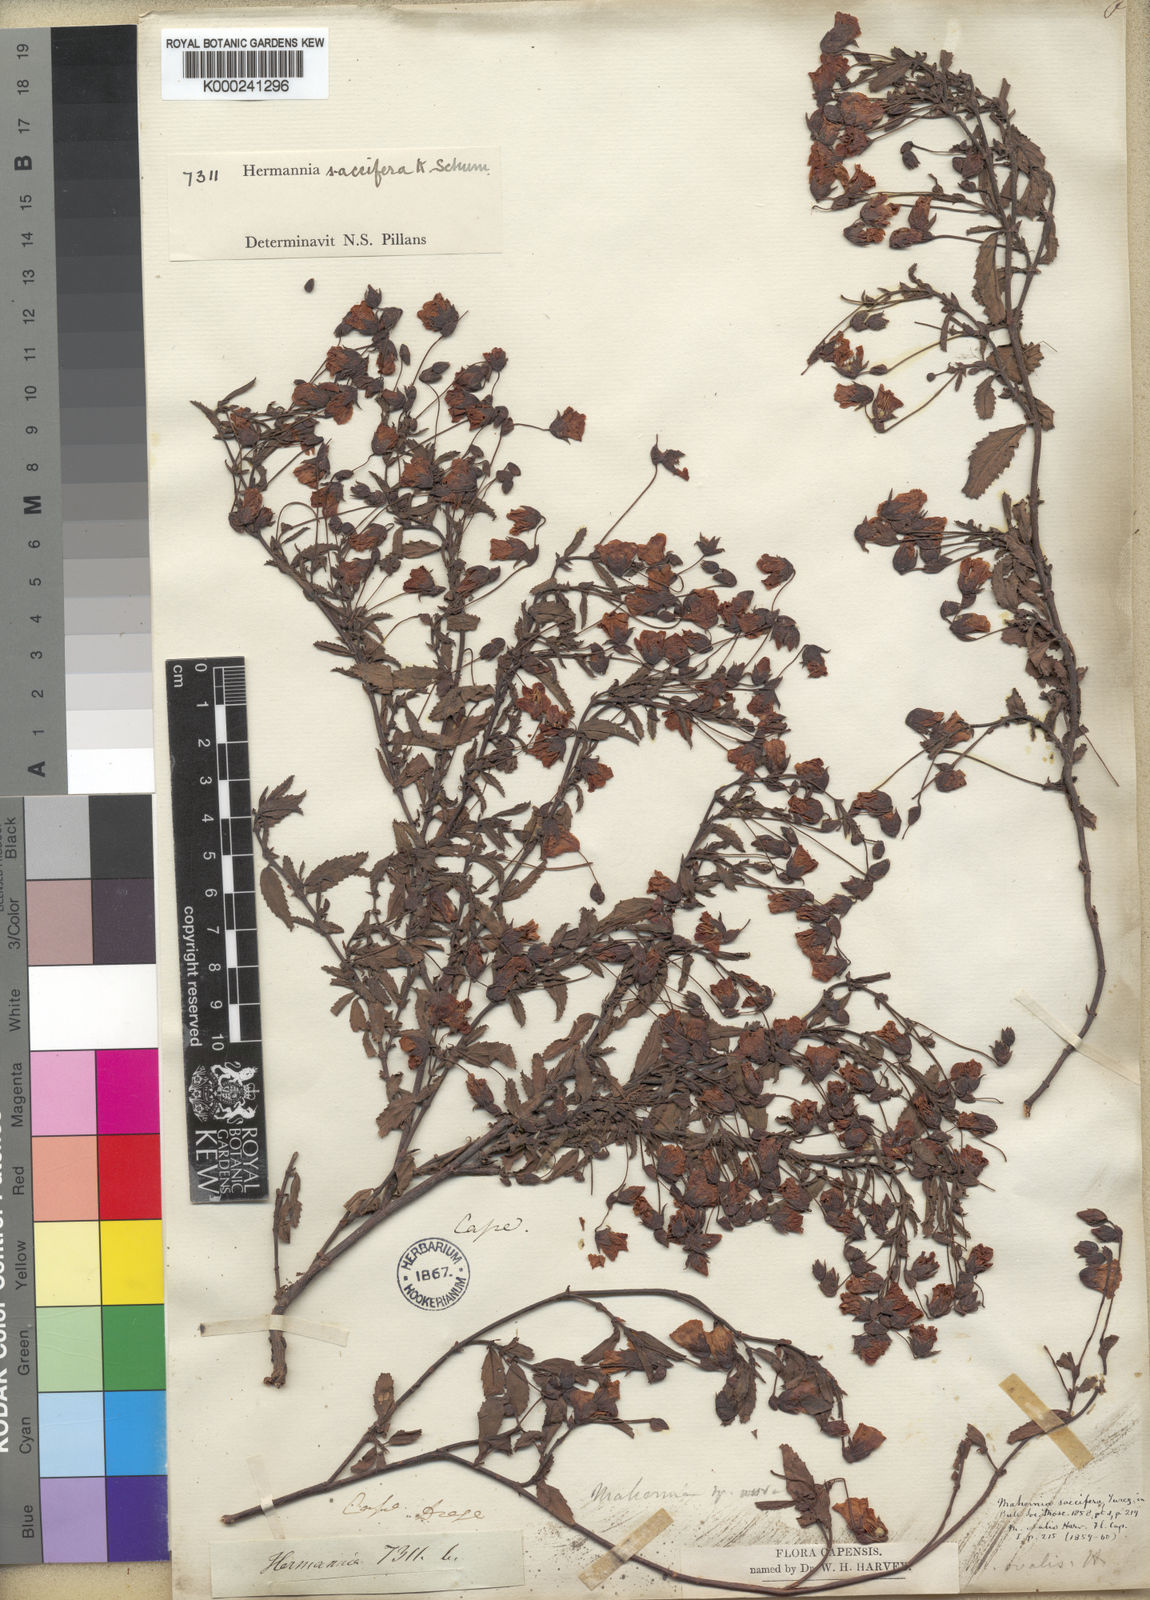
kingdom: Plantae
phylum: Tracheophyta
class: Magnoliopsida
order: Malvales
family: Malvaceae
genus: Hermannia
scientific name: Hermannia saccifera
